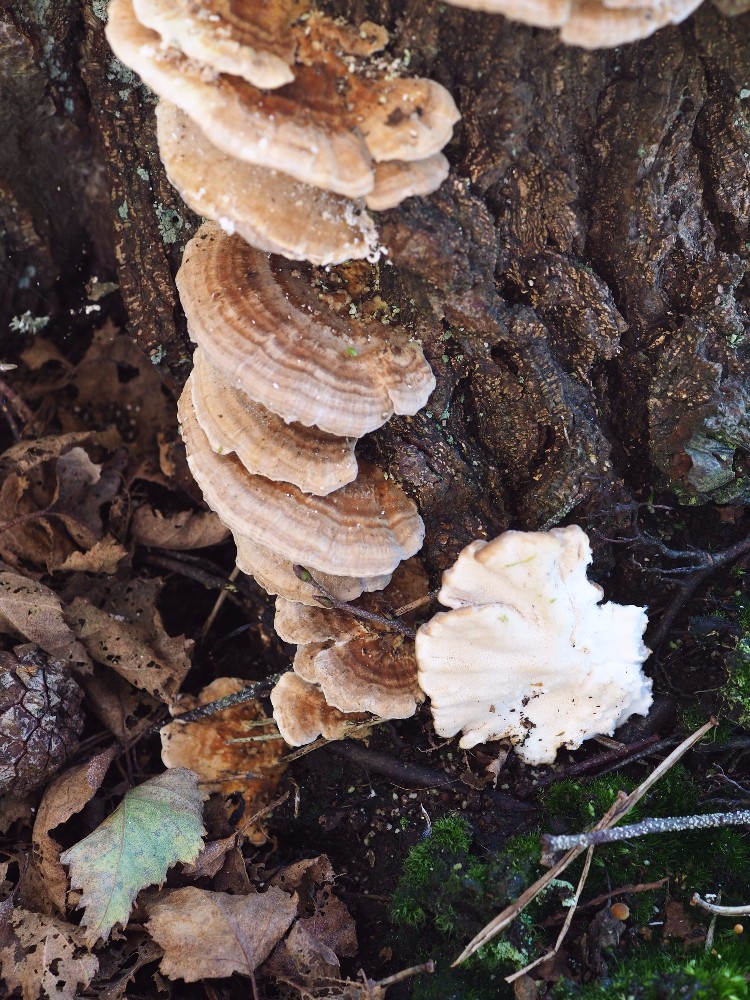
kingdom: Fungi
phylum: Basidiomycota
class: Agaricomycetes
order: Polyporales
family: Polyporaceae
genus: Trametes
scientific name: Trametes ochracea
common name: bæltet læderporesvamp
